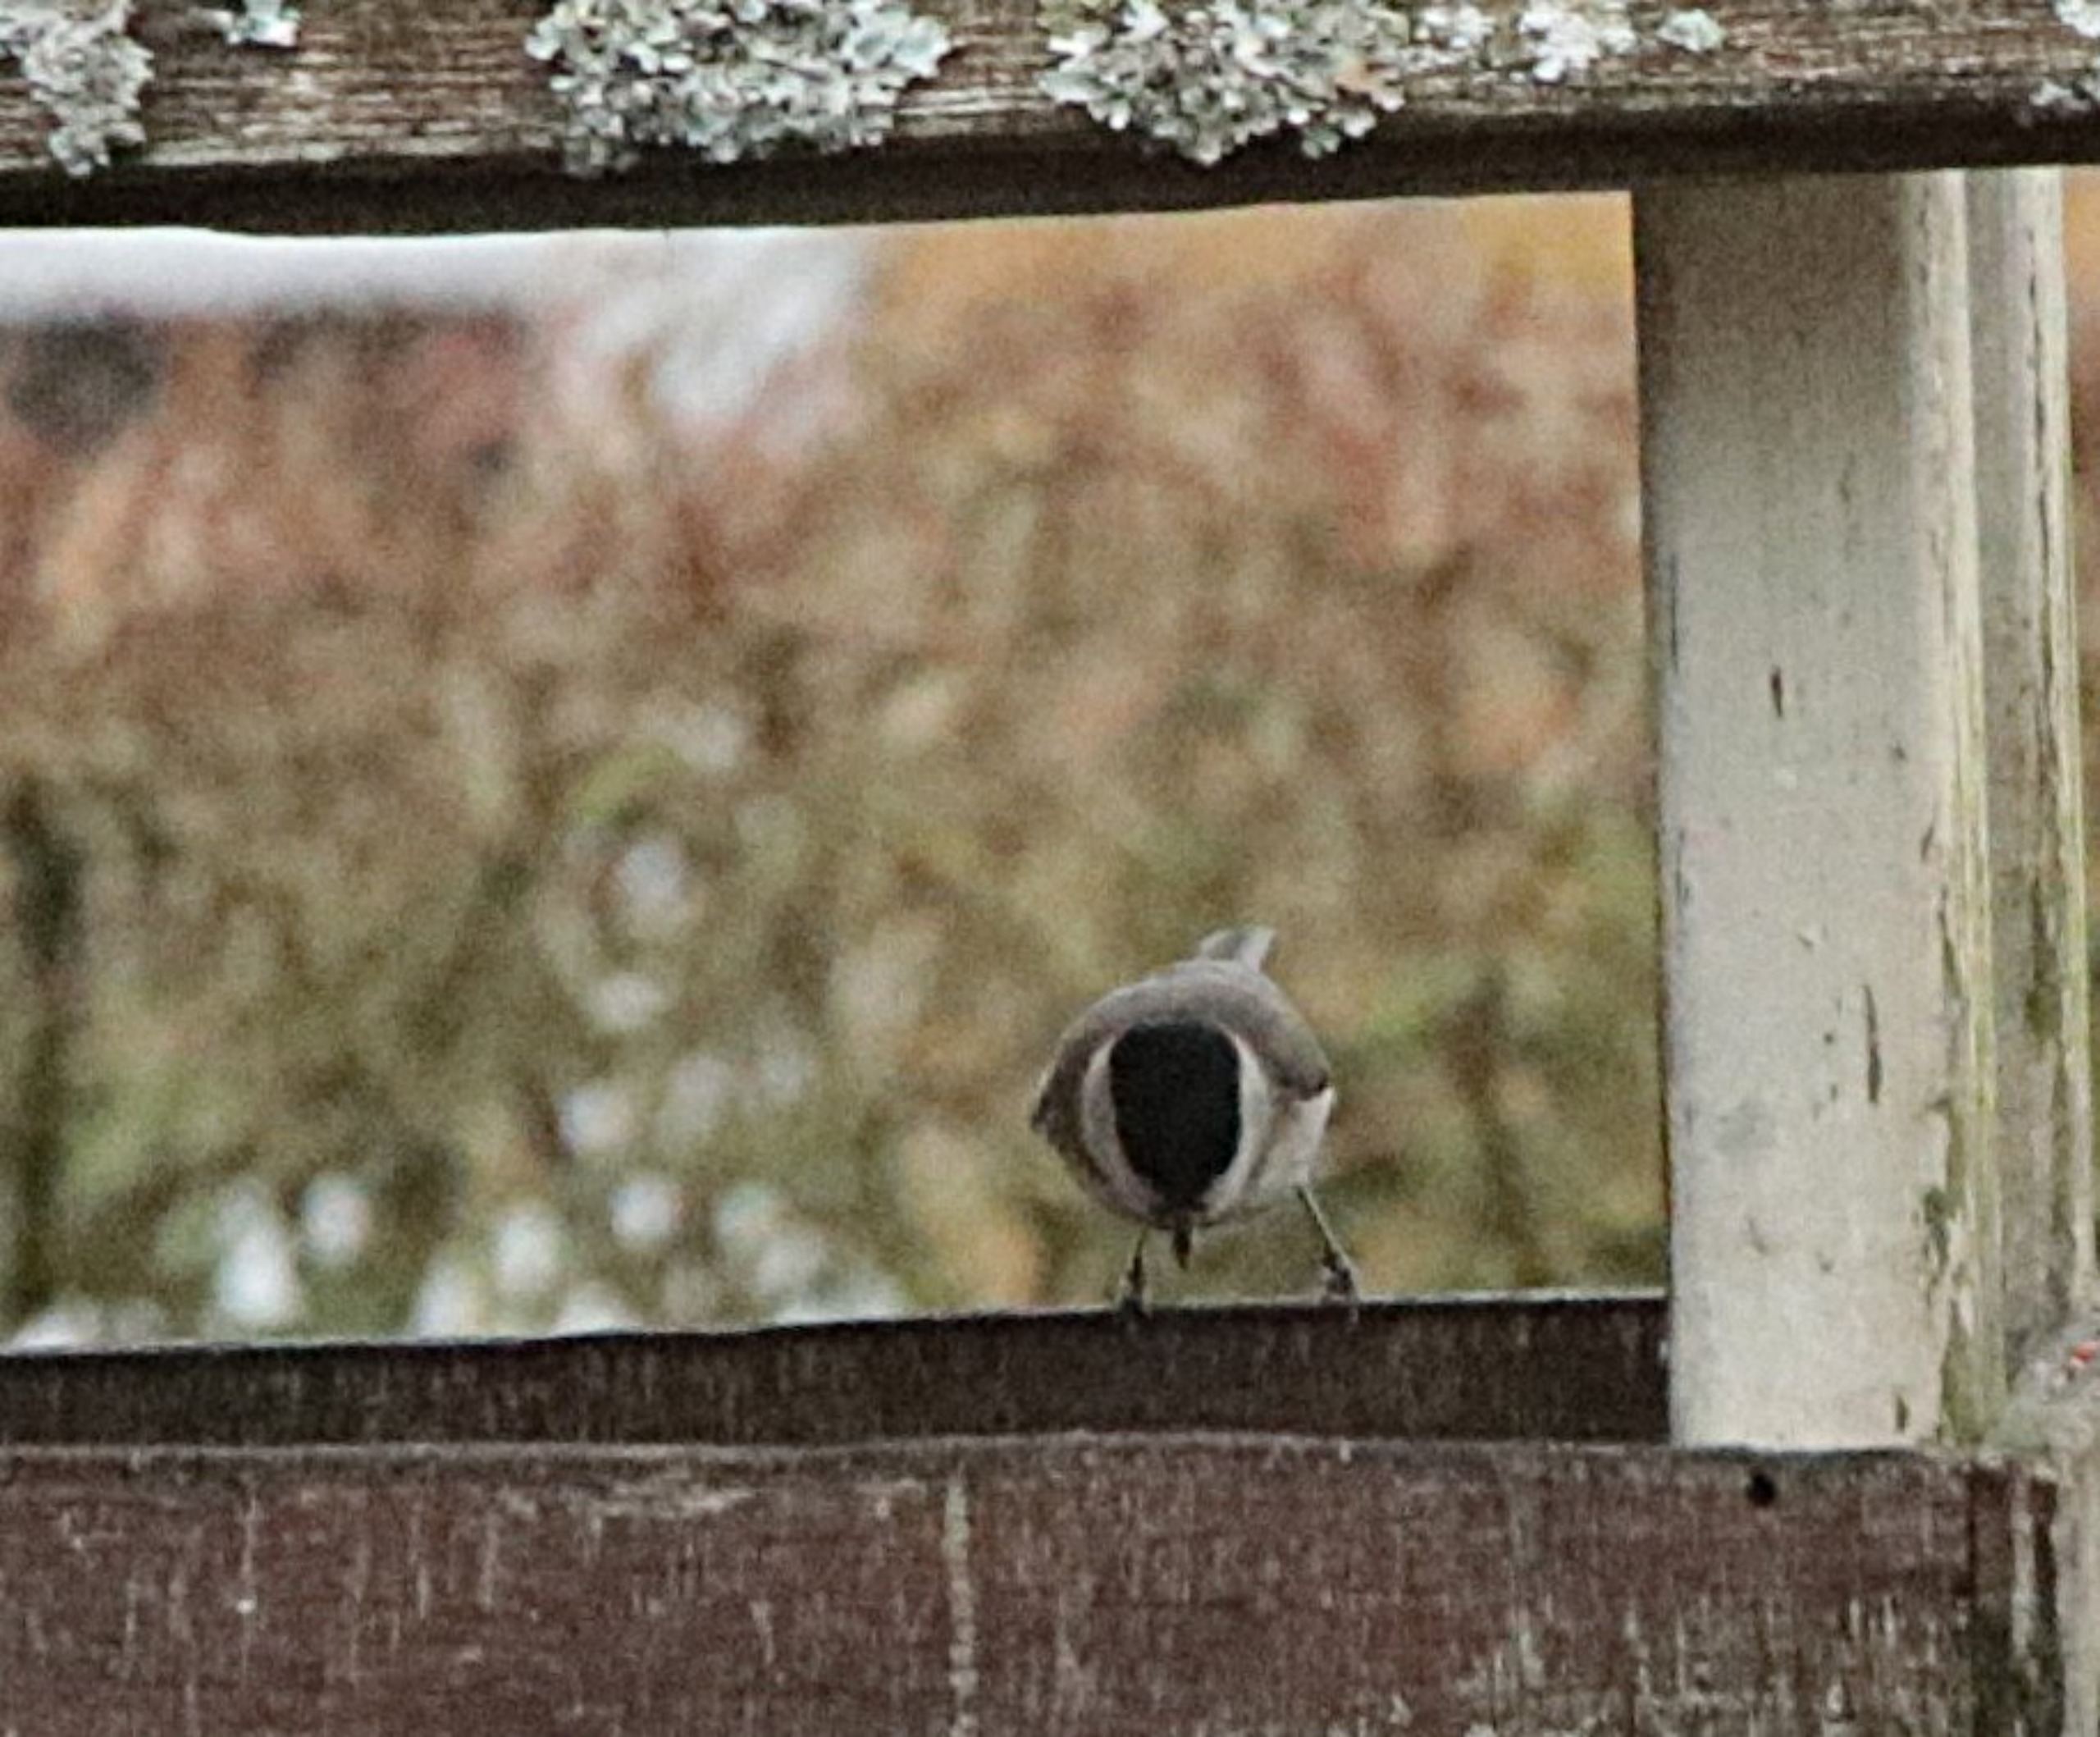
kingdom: Animalia
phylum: Chordata
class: Aves
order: Passeriformes
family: Paridae
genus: Poecile
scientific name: Poecile palustris
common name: Sumpmejse
